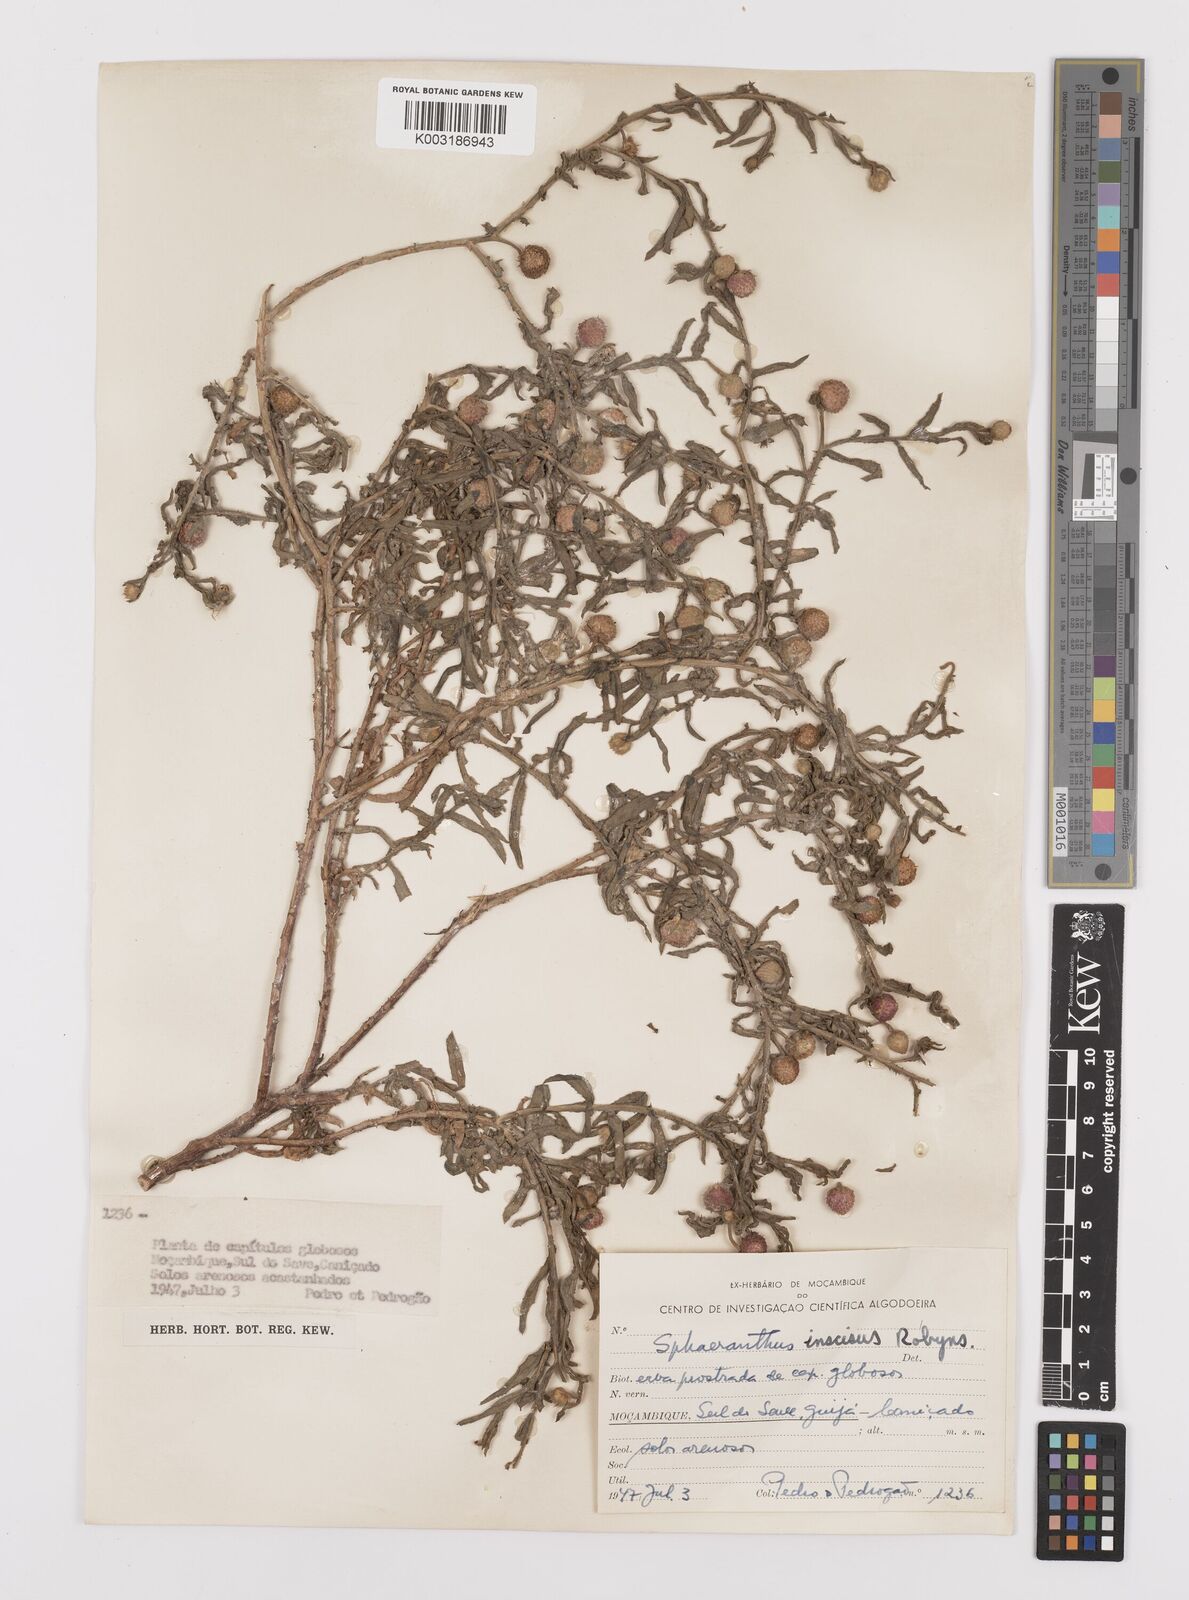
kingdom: Plantae
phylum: Tracheophyta
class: Magnoliopsida
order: Asterales
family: Asteraceae
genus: Sphaeranthus
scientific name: Sphaeranthus peduncularis
